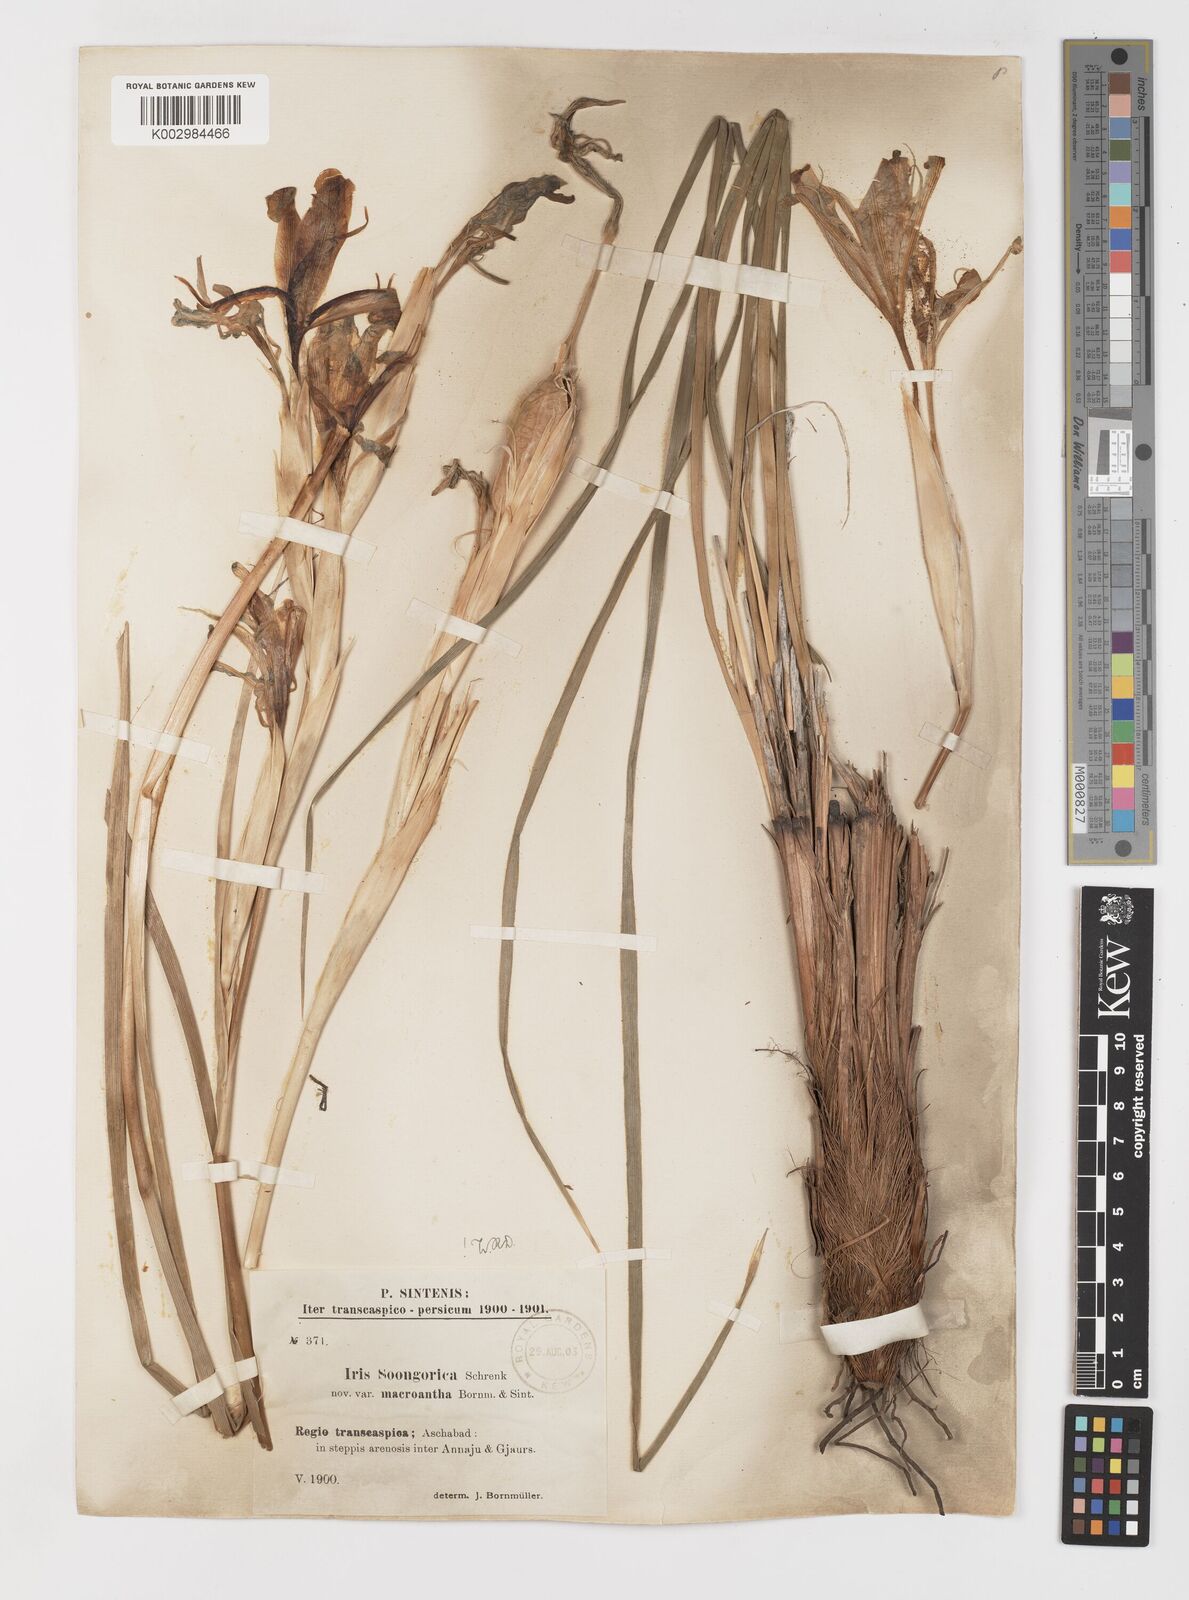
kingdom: Plantae
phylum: Tracheophyta
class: Liliopsida
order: Asparagales
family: Iridaceae
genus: Iris
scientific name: Iris songarica
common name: Songar iris
